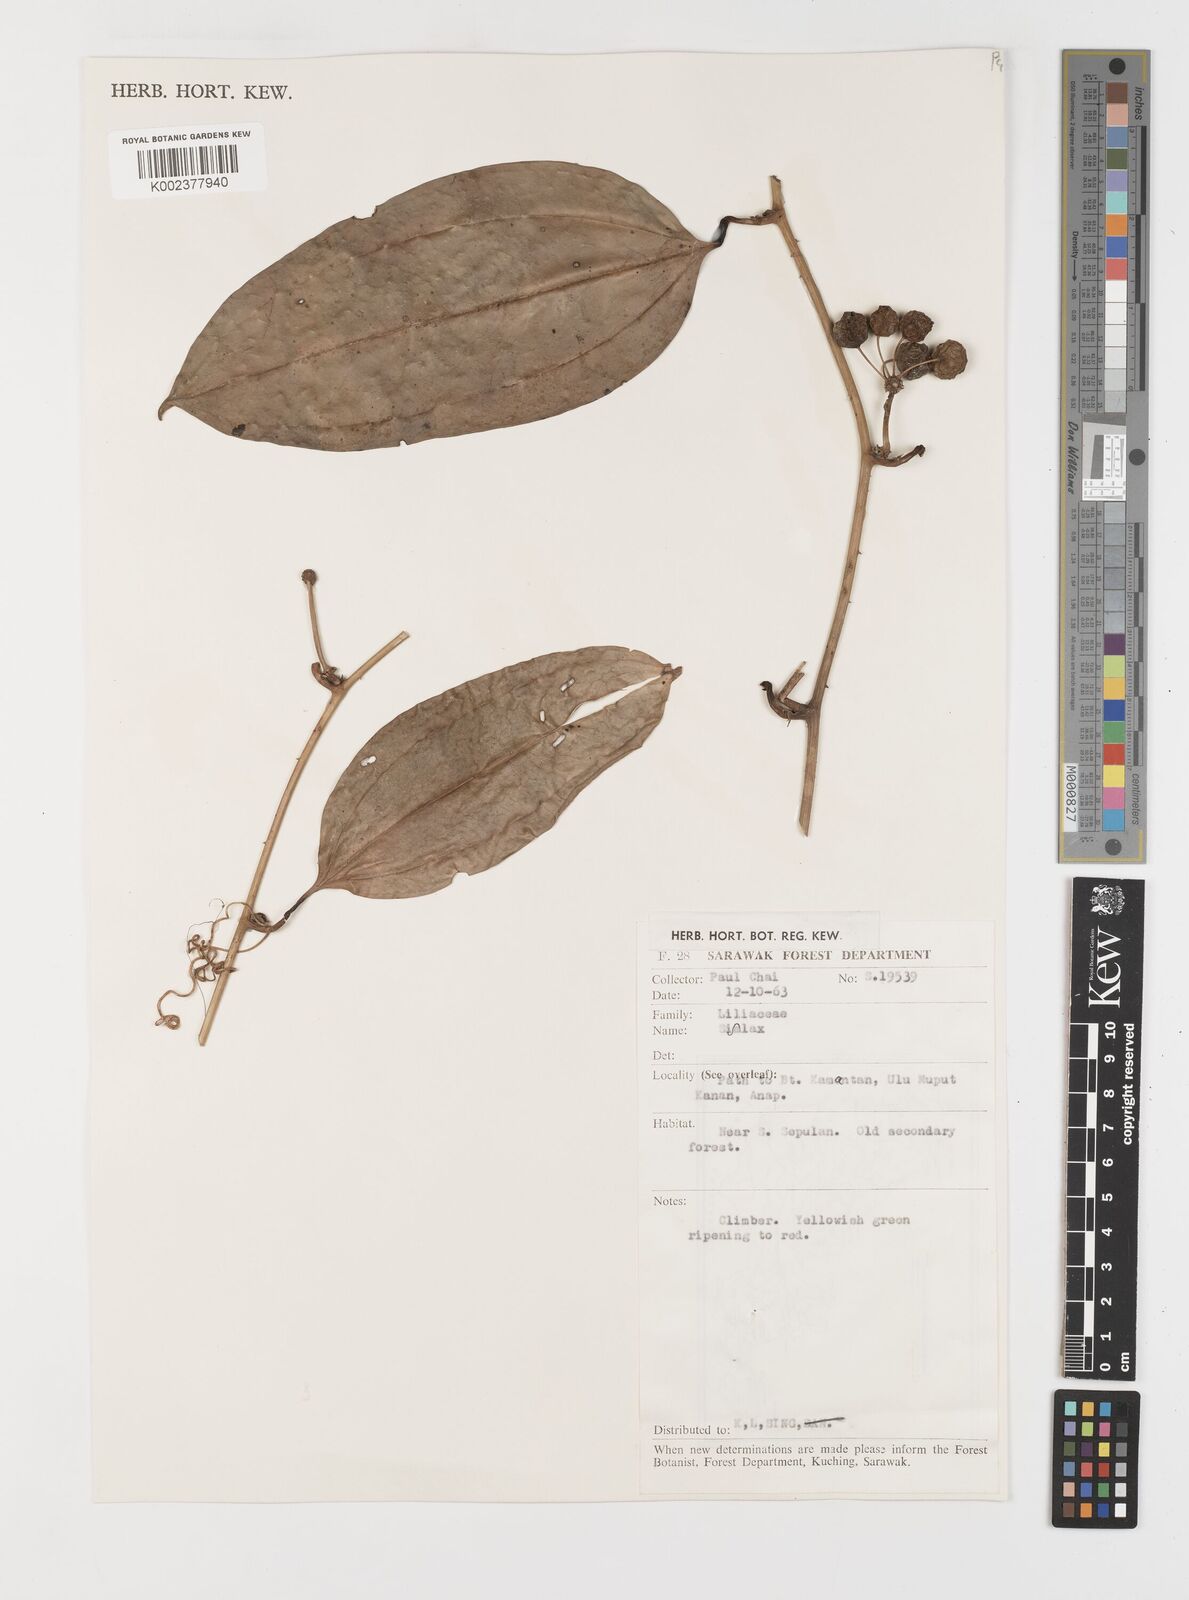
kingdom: Plantae
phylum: Tracheophyta
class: Liliopsida
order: Liliales
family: Smilacaceae
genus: Smilax
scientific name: Smilax
